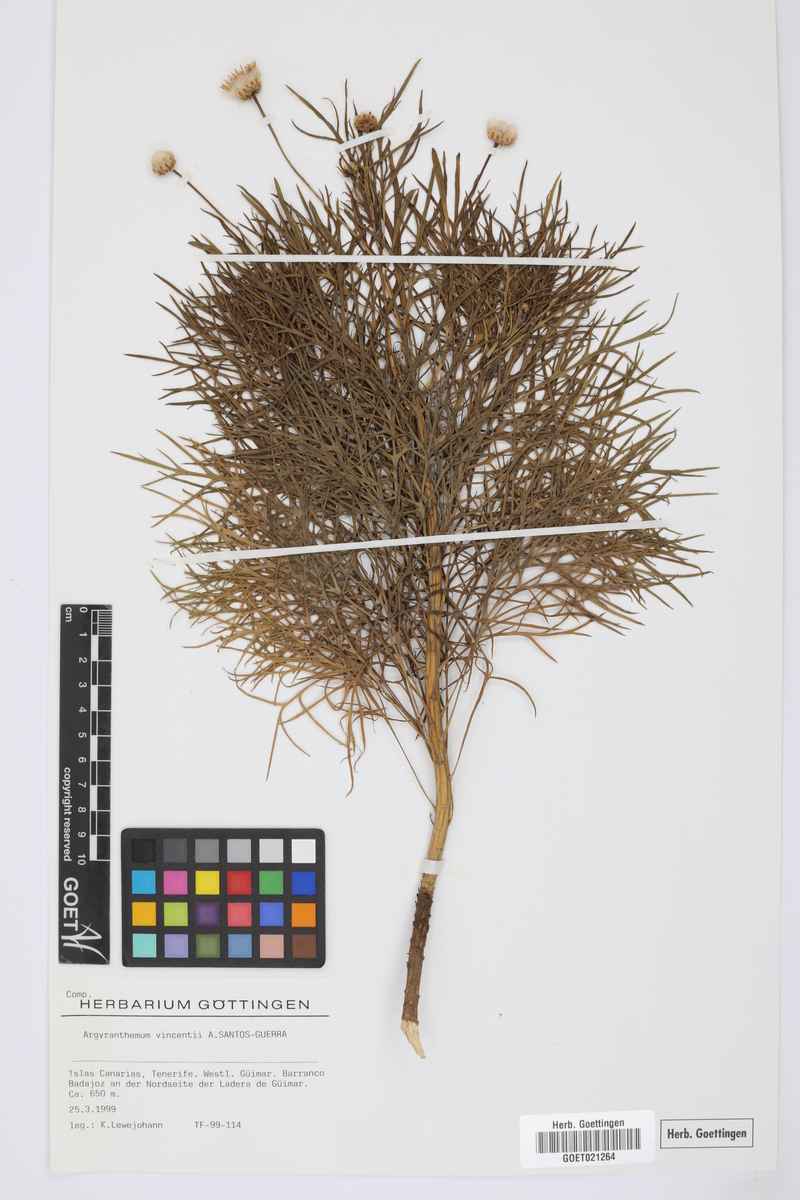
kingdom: Plantae
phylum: Tracheophyta
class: Magnoliopsida
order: Asterales
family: Asteraceae
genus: Argyranthemum
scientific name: Argyranthemum vincentii
